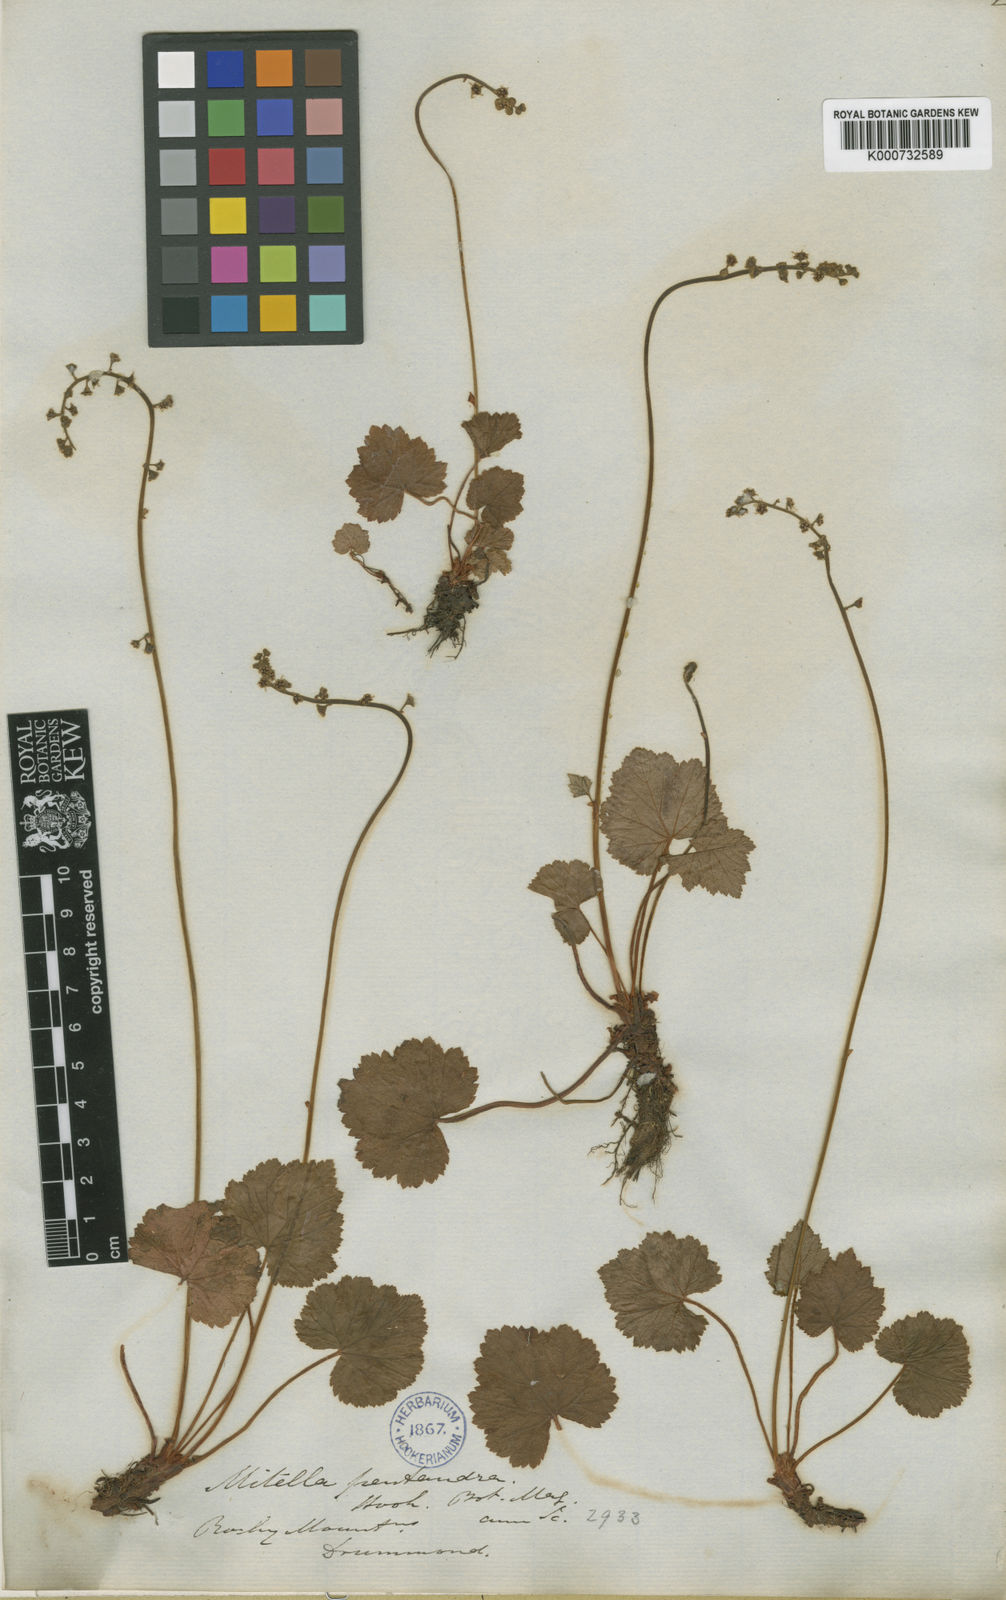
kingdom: Plantae
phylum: Tracheophyta
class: Magnoliopsida
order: Saxifragales
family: Saxifragaceae
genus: Pectiantia
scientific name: Pectiantia pentandra
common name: Alpine bishop's-cap
